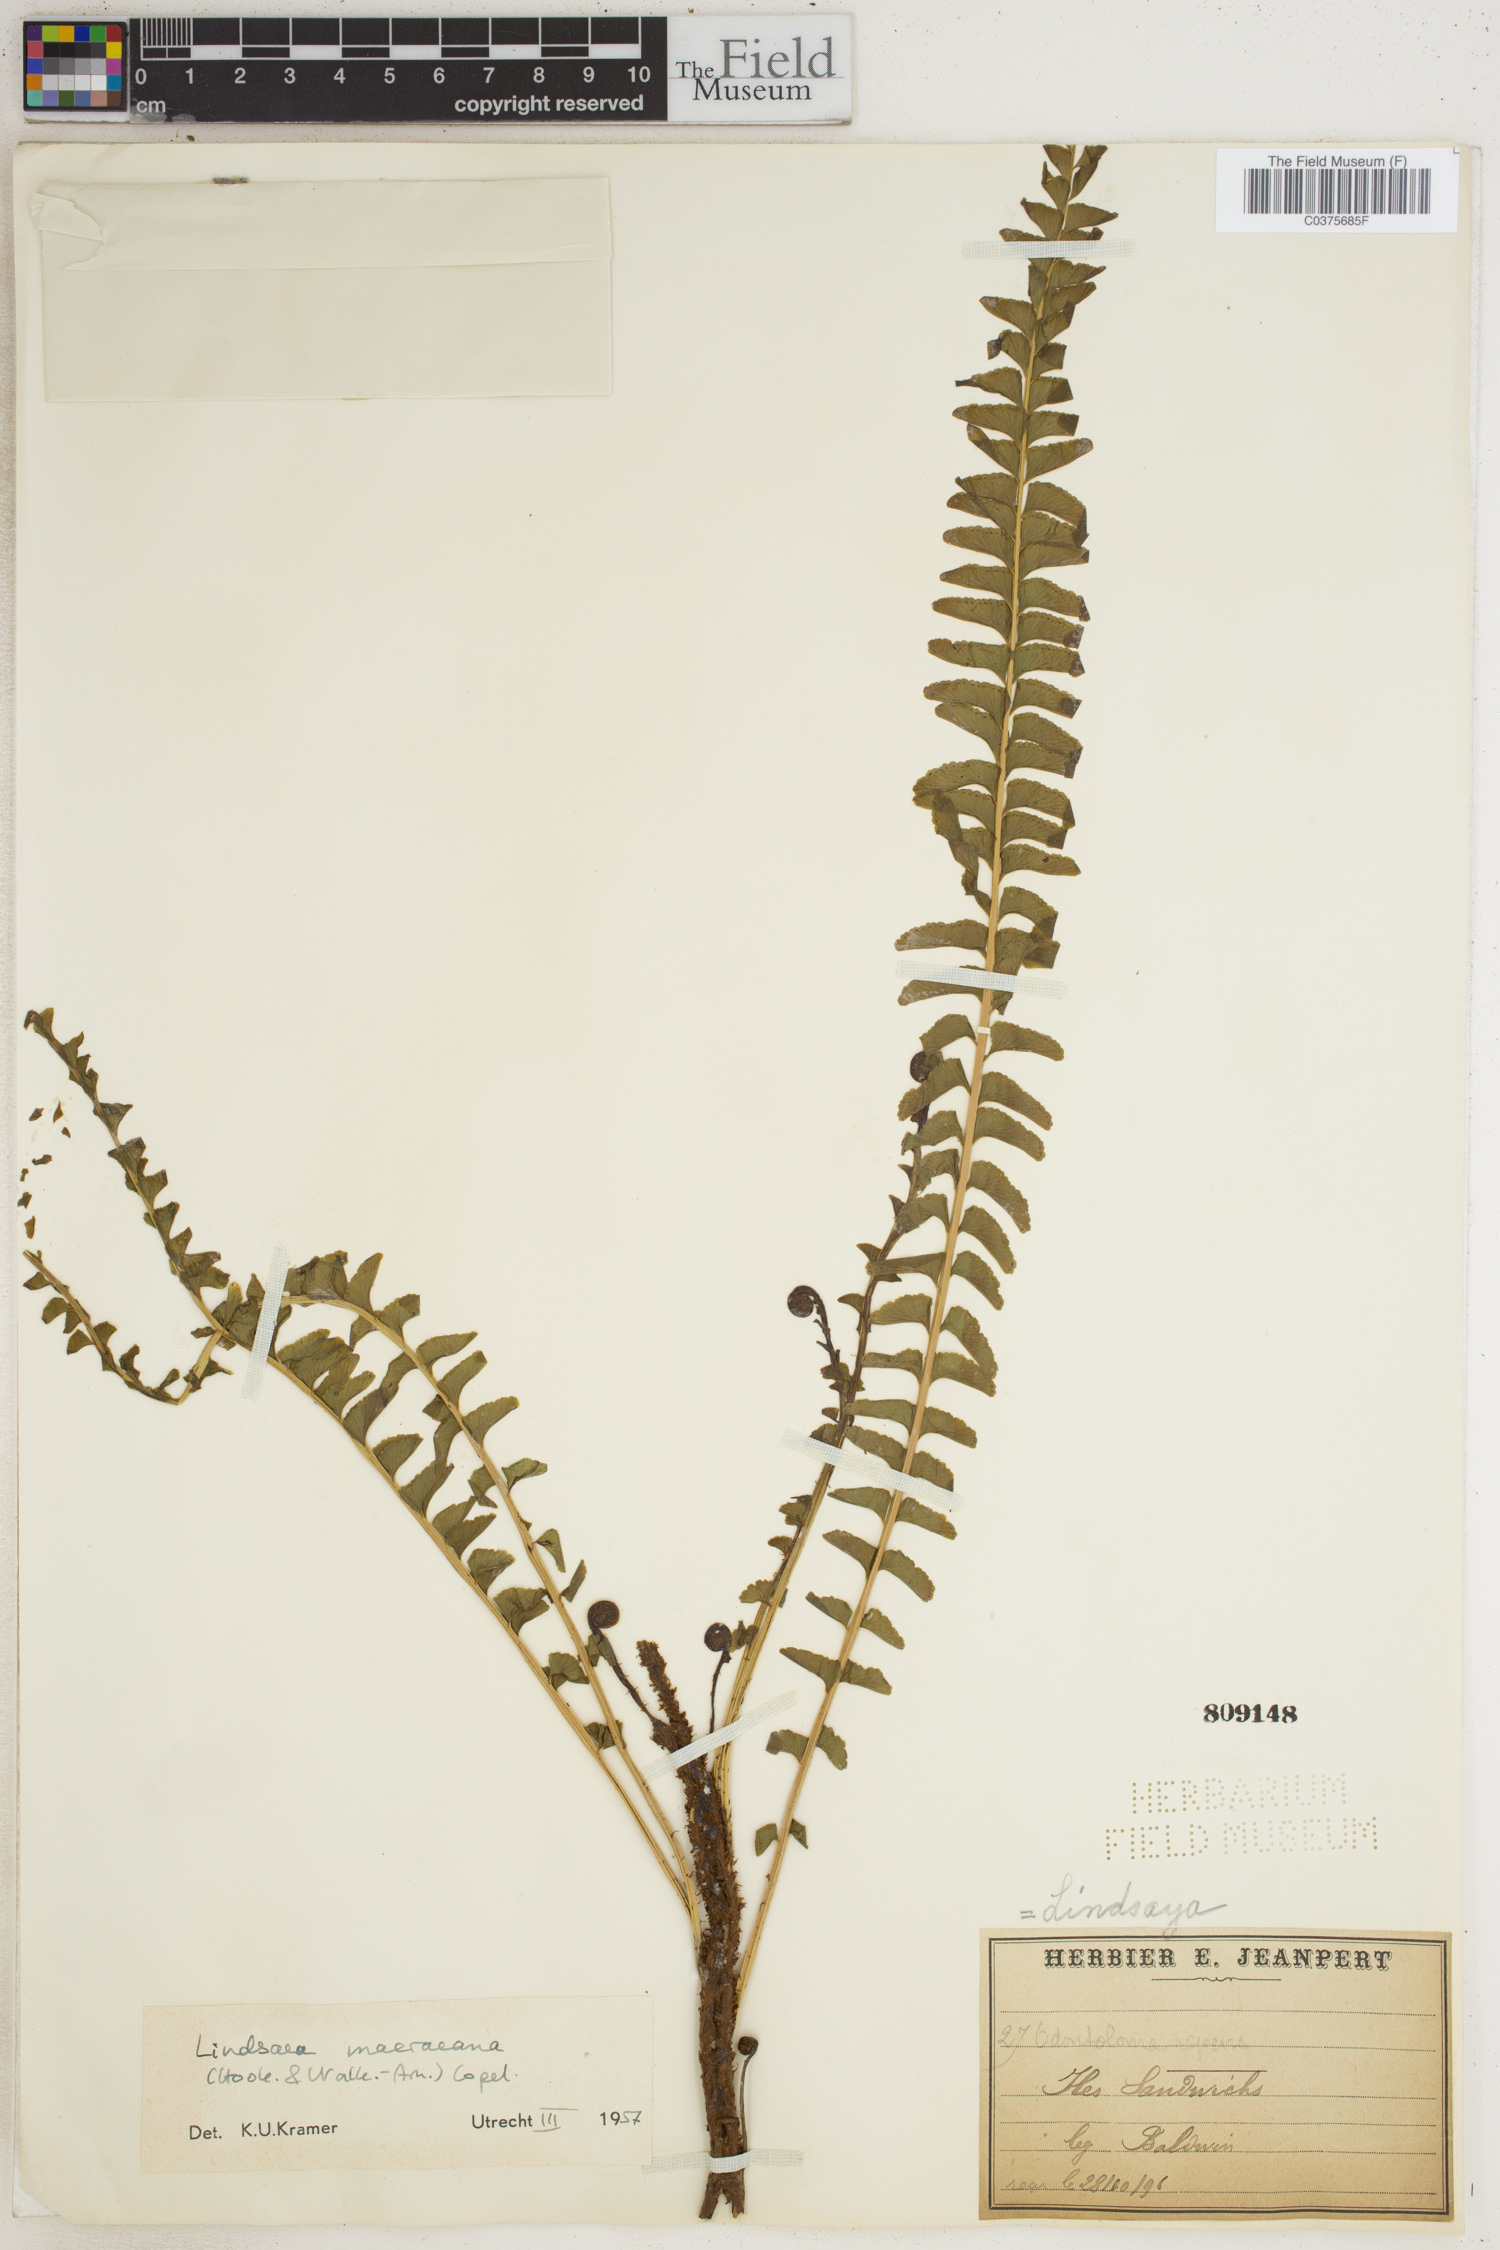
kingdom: Plantae
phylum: Tracheophyta
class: Polypodiopsida
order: Polypodiales
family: Lindsaeaceae
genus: Lindsaea
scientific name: Lindsaea macraeana
